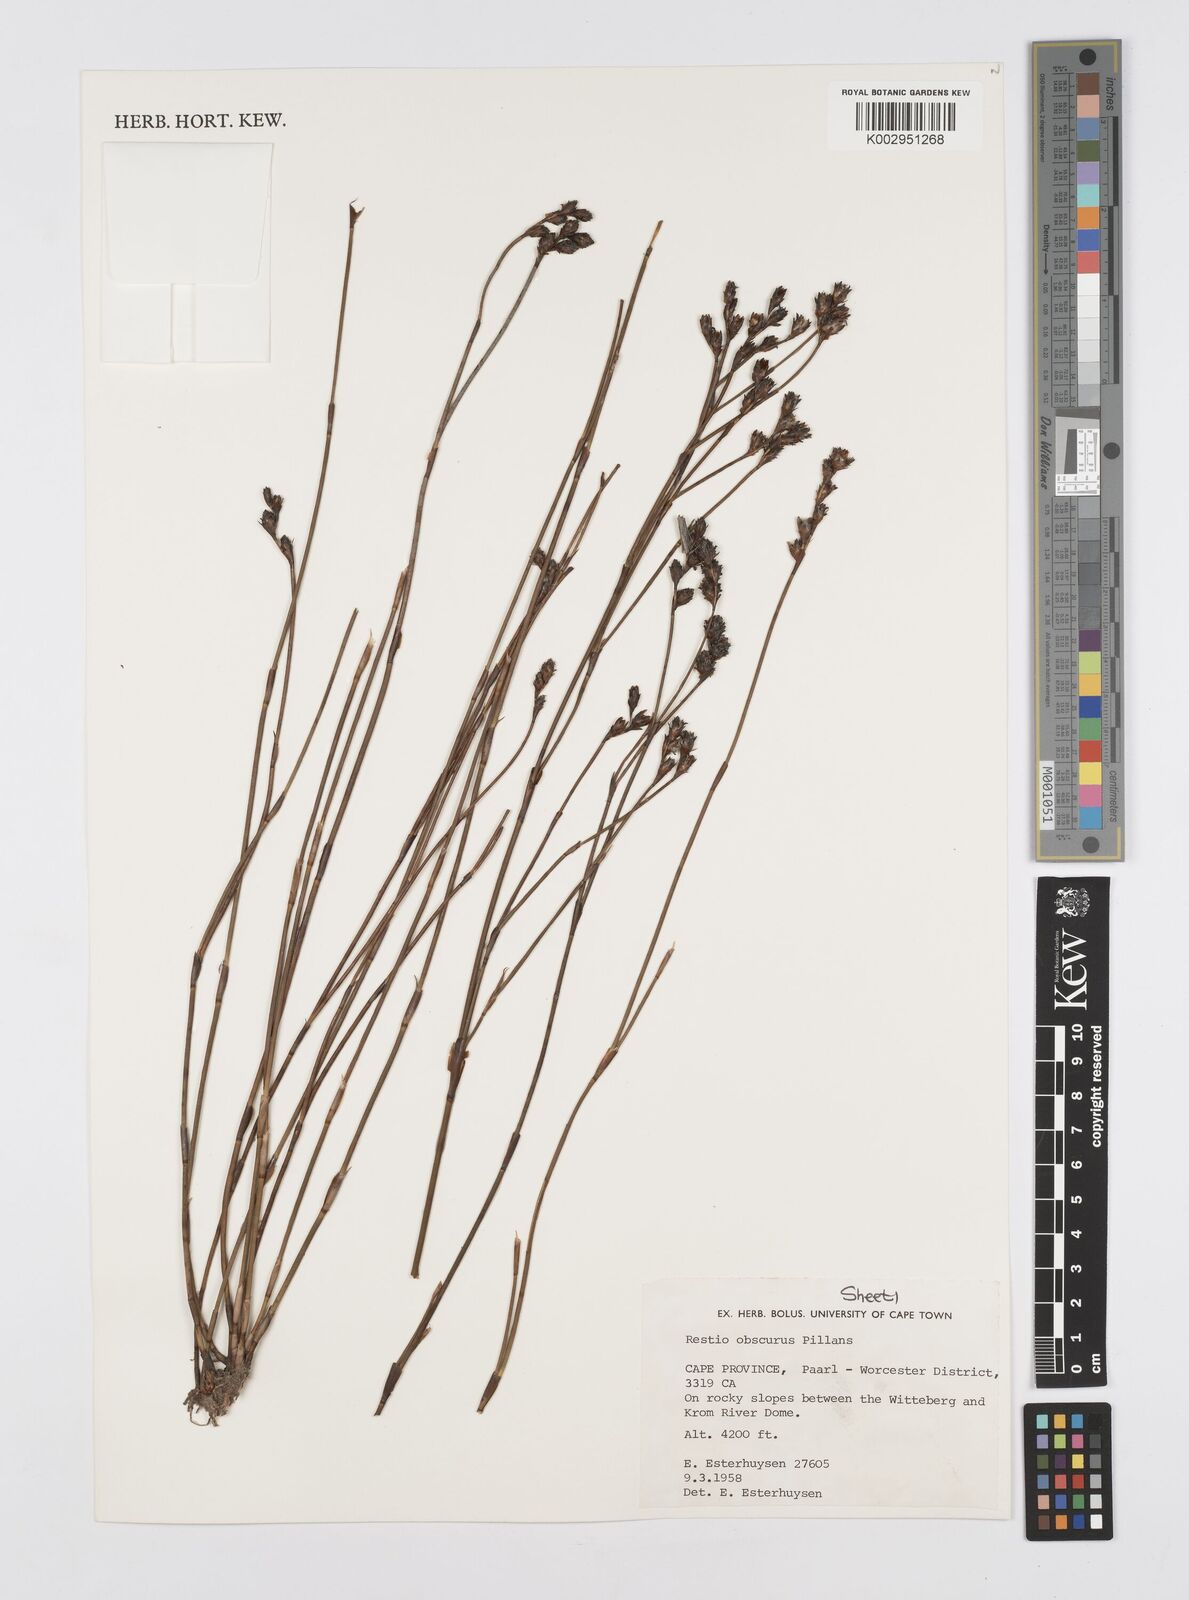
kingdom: Plantae
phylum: Tracheophyta
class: Liliopsida
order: Poales
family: Restionaceae
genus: Restio
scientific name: Restio obscurus
